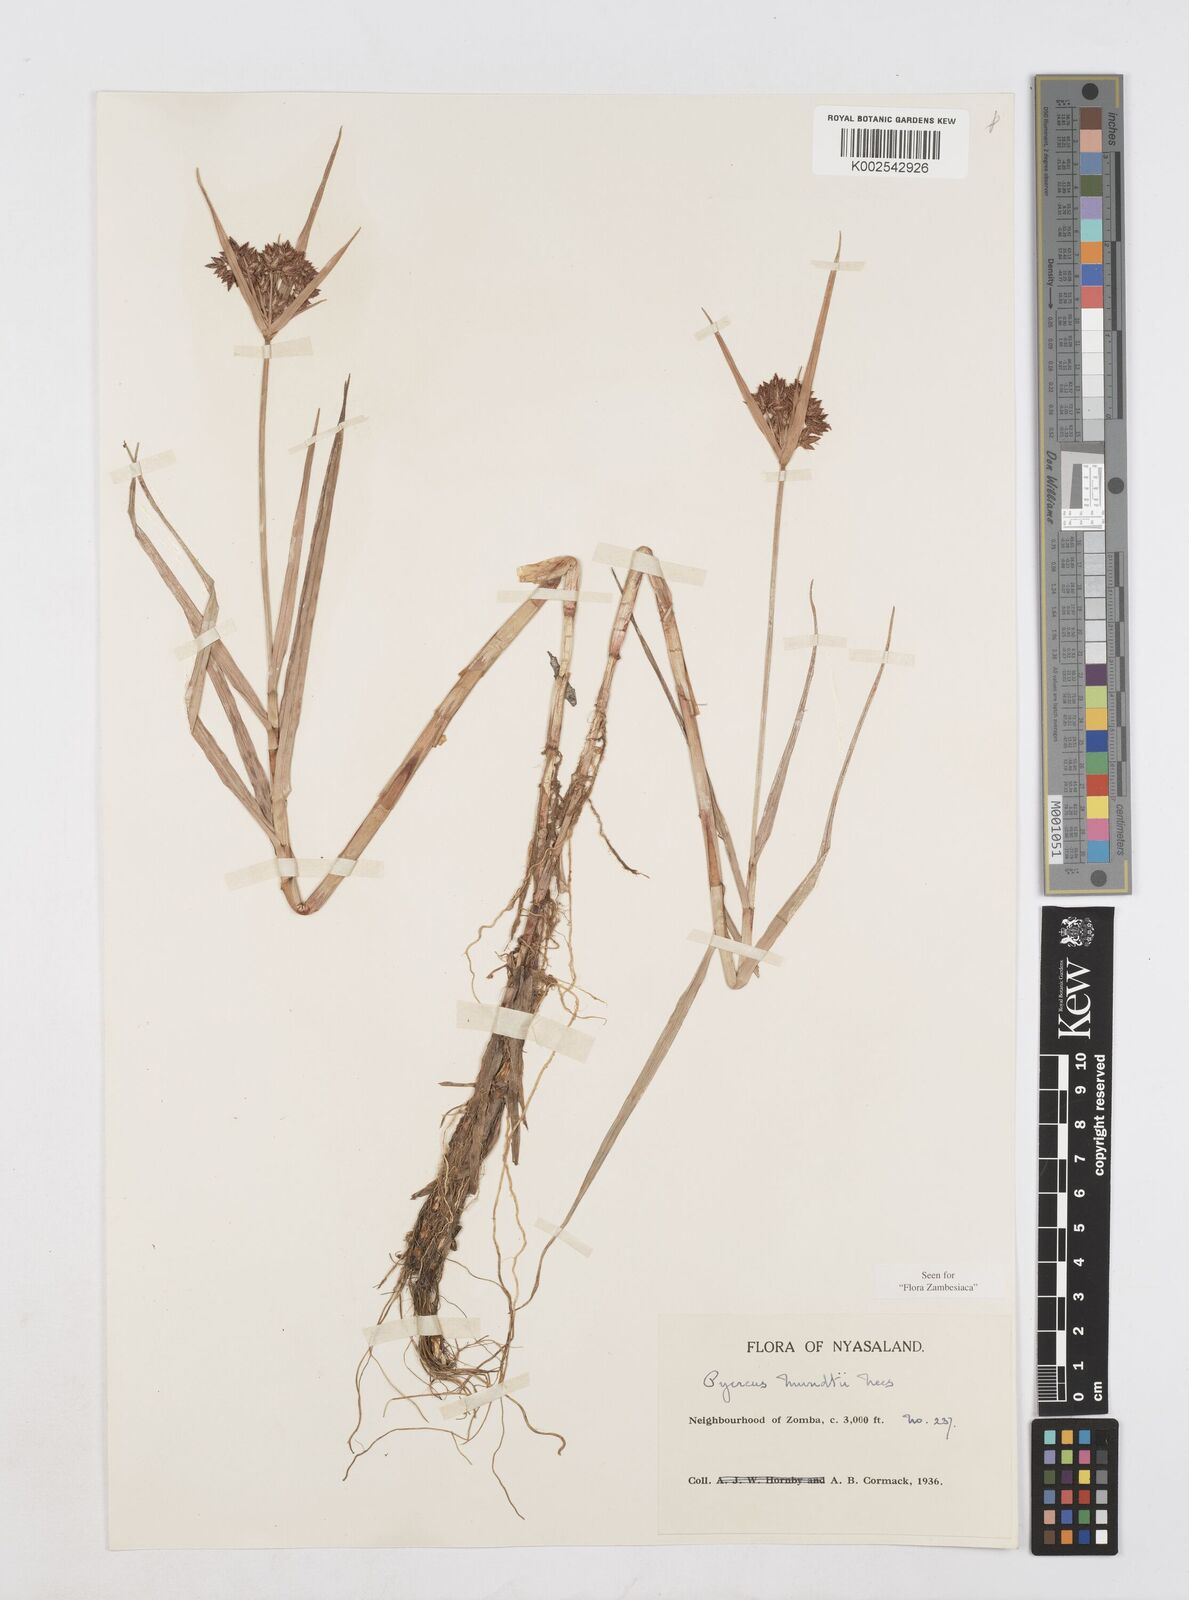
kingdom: Plantae
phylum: Tracheophyta
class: Liliopsida
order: Poales
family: Cyperaceae
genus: Cyperus
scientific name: Cyperus mundii
